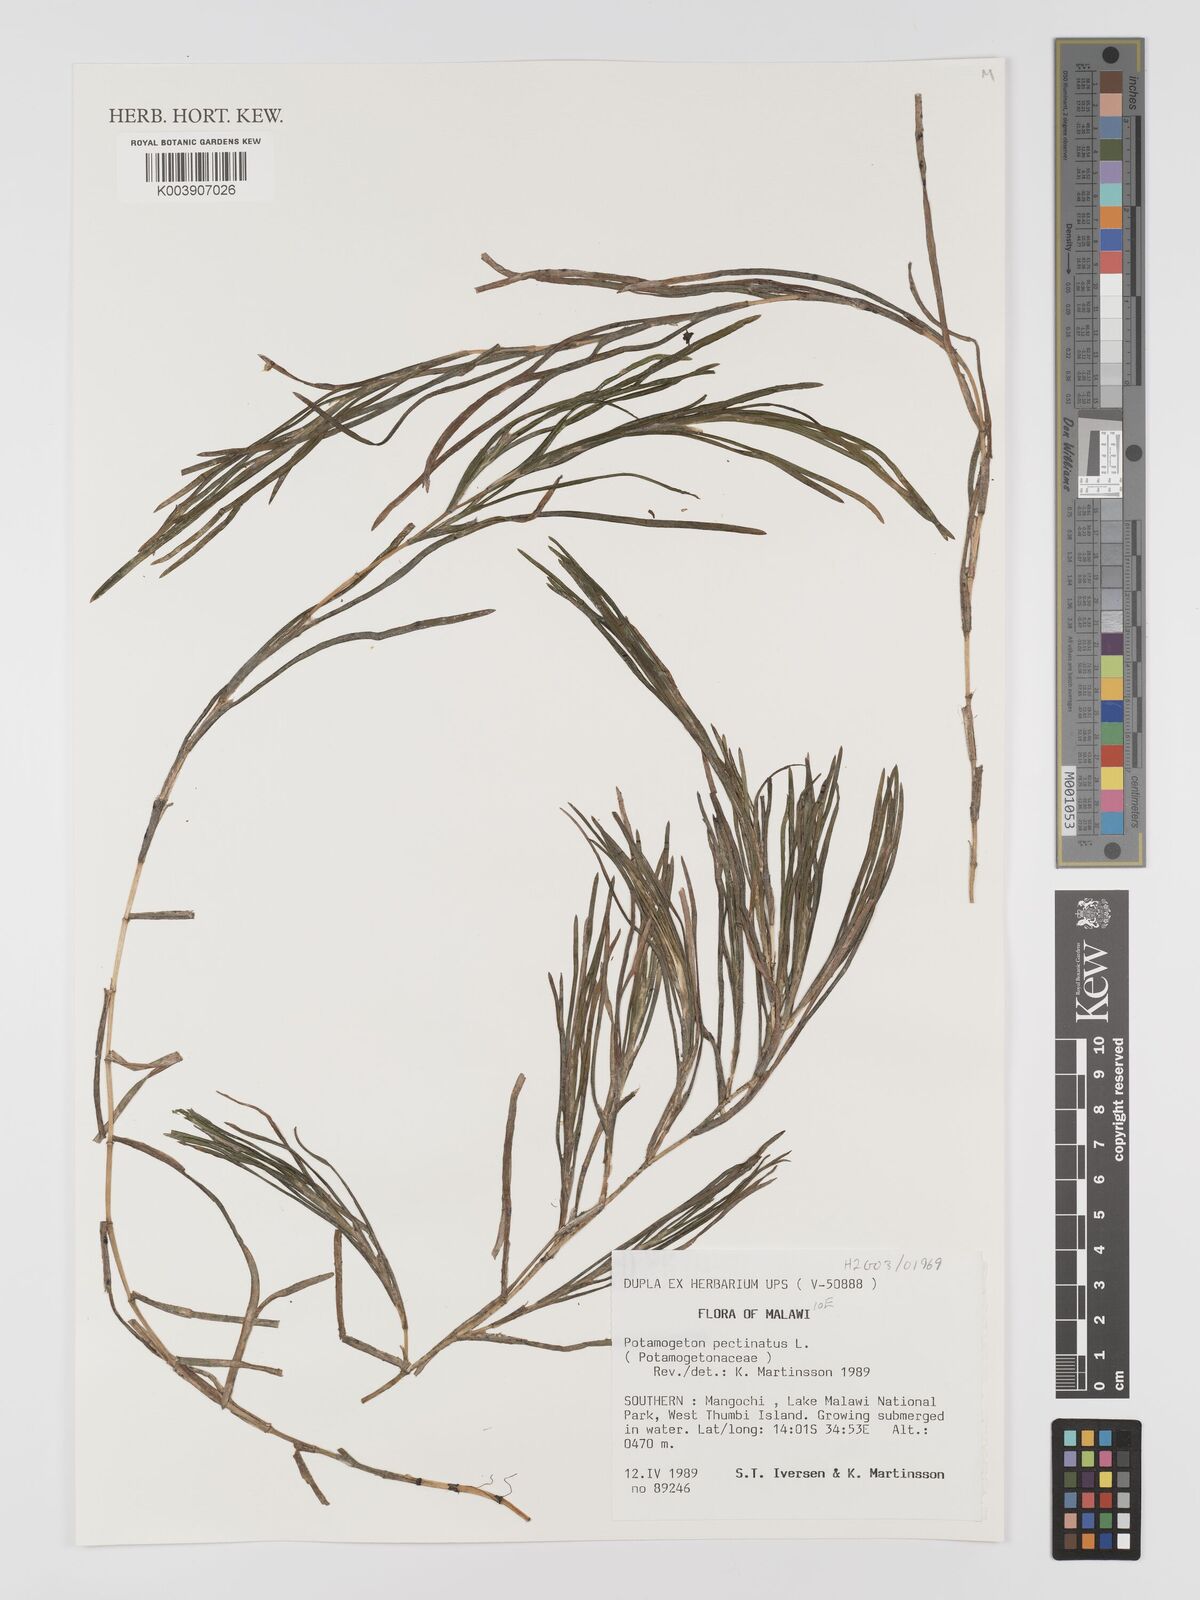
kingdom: Plantae
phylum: Tracheophyta
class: Liliopsida
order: Alismatales
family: Potamogetonaceae
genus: Stuckenia
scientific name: Stuckenia pectinata
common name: Sago pondweed
